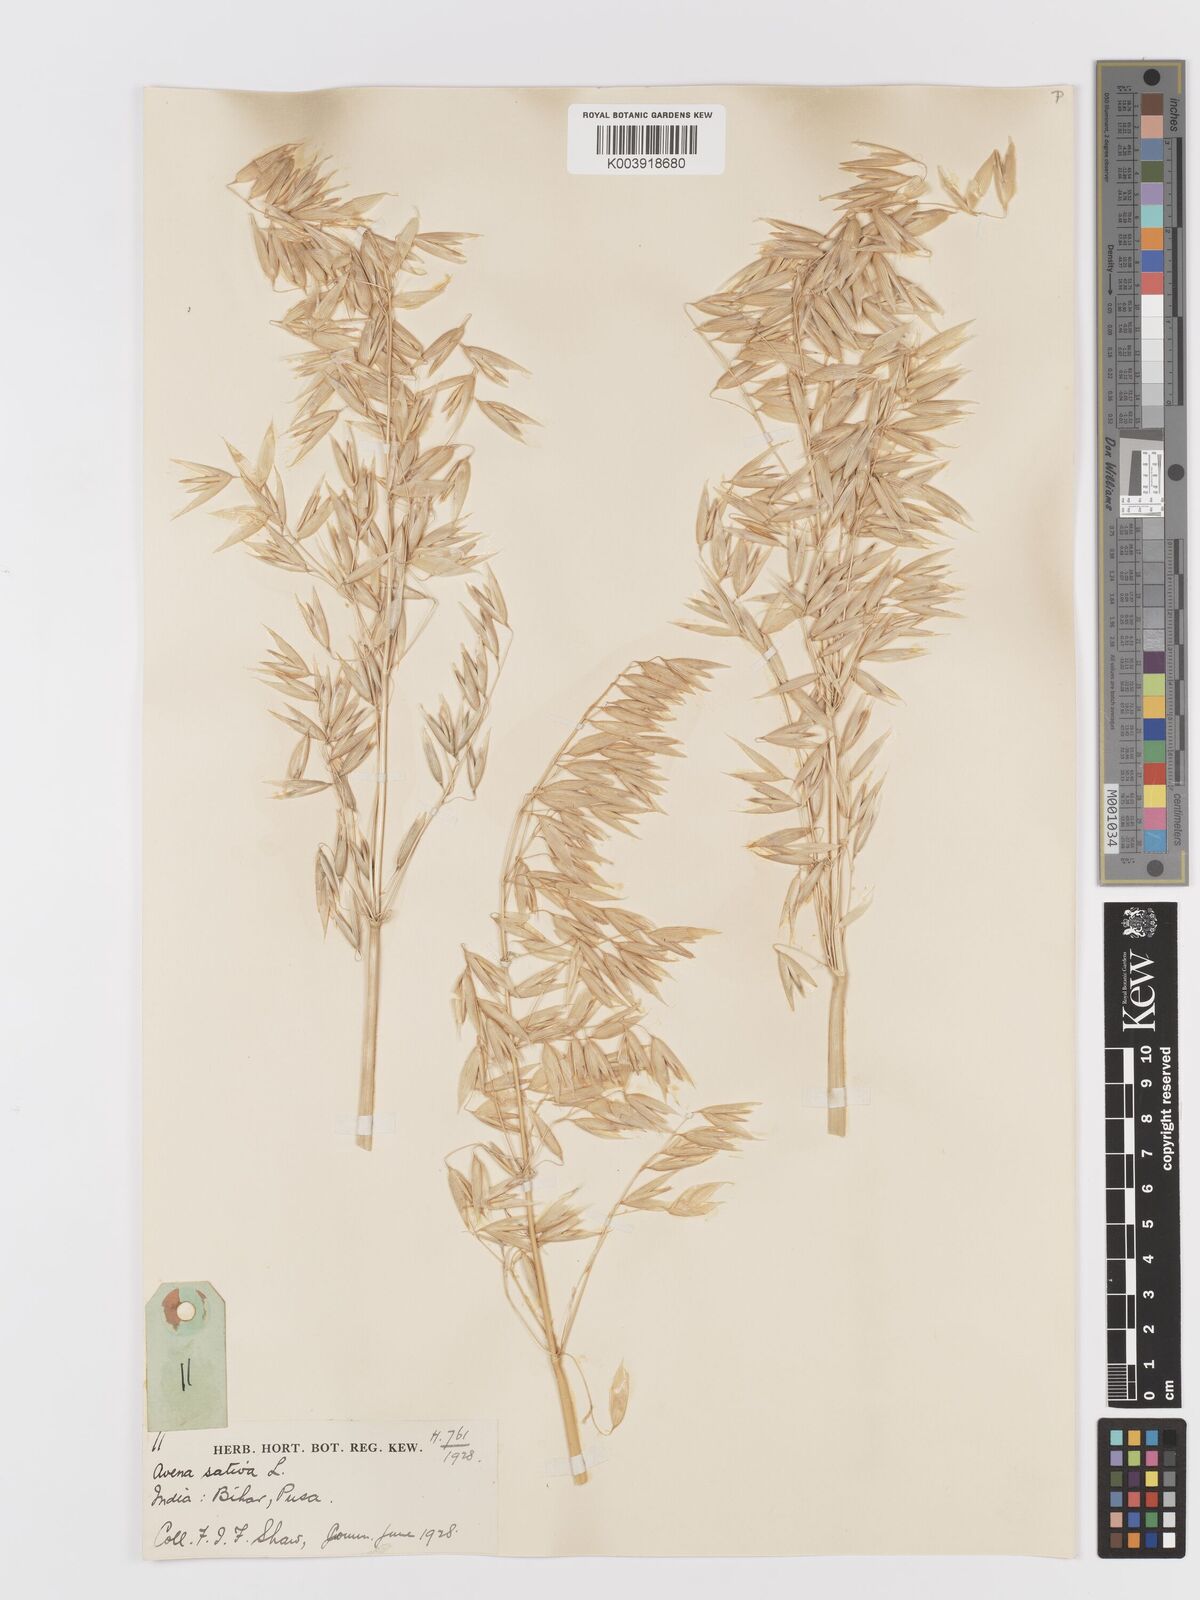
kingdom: Plantae
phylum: Tracheophyta
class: Liliopsida
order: Poales
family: Poaceae
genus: Avena
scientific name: Avena sativa
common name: Oat
